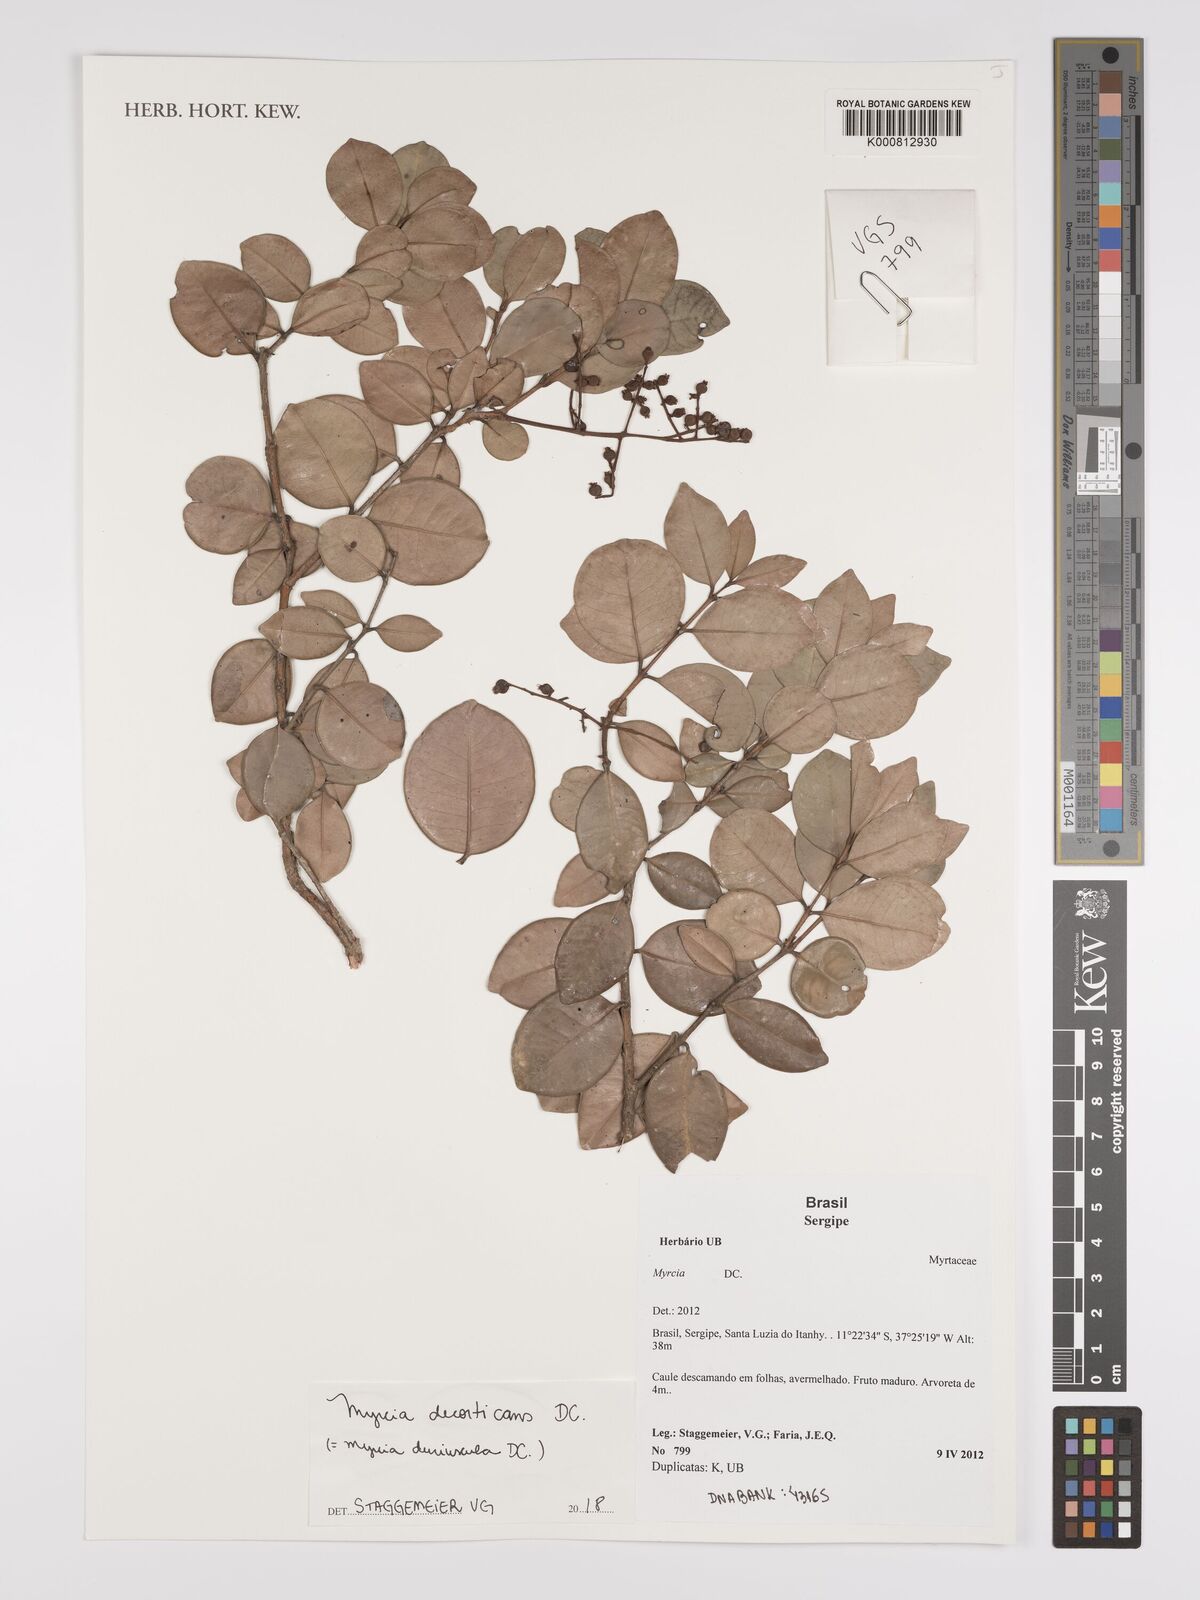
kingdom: Plantae
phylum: Tracheophyta
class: Magnoliopsida
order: Myrtales
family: Myrtaceae
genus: Myrcia
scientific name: Myrcia decorticans
